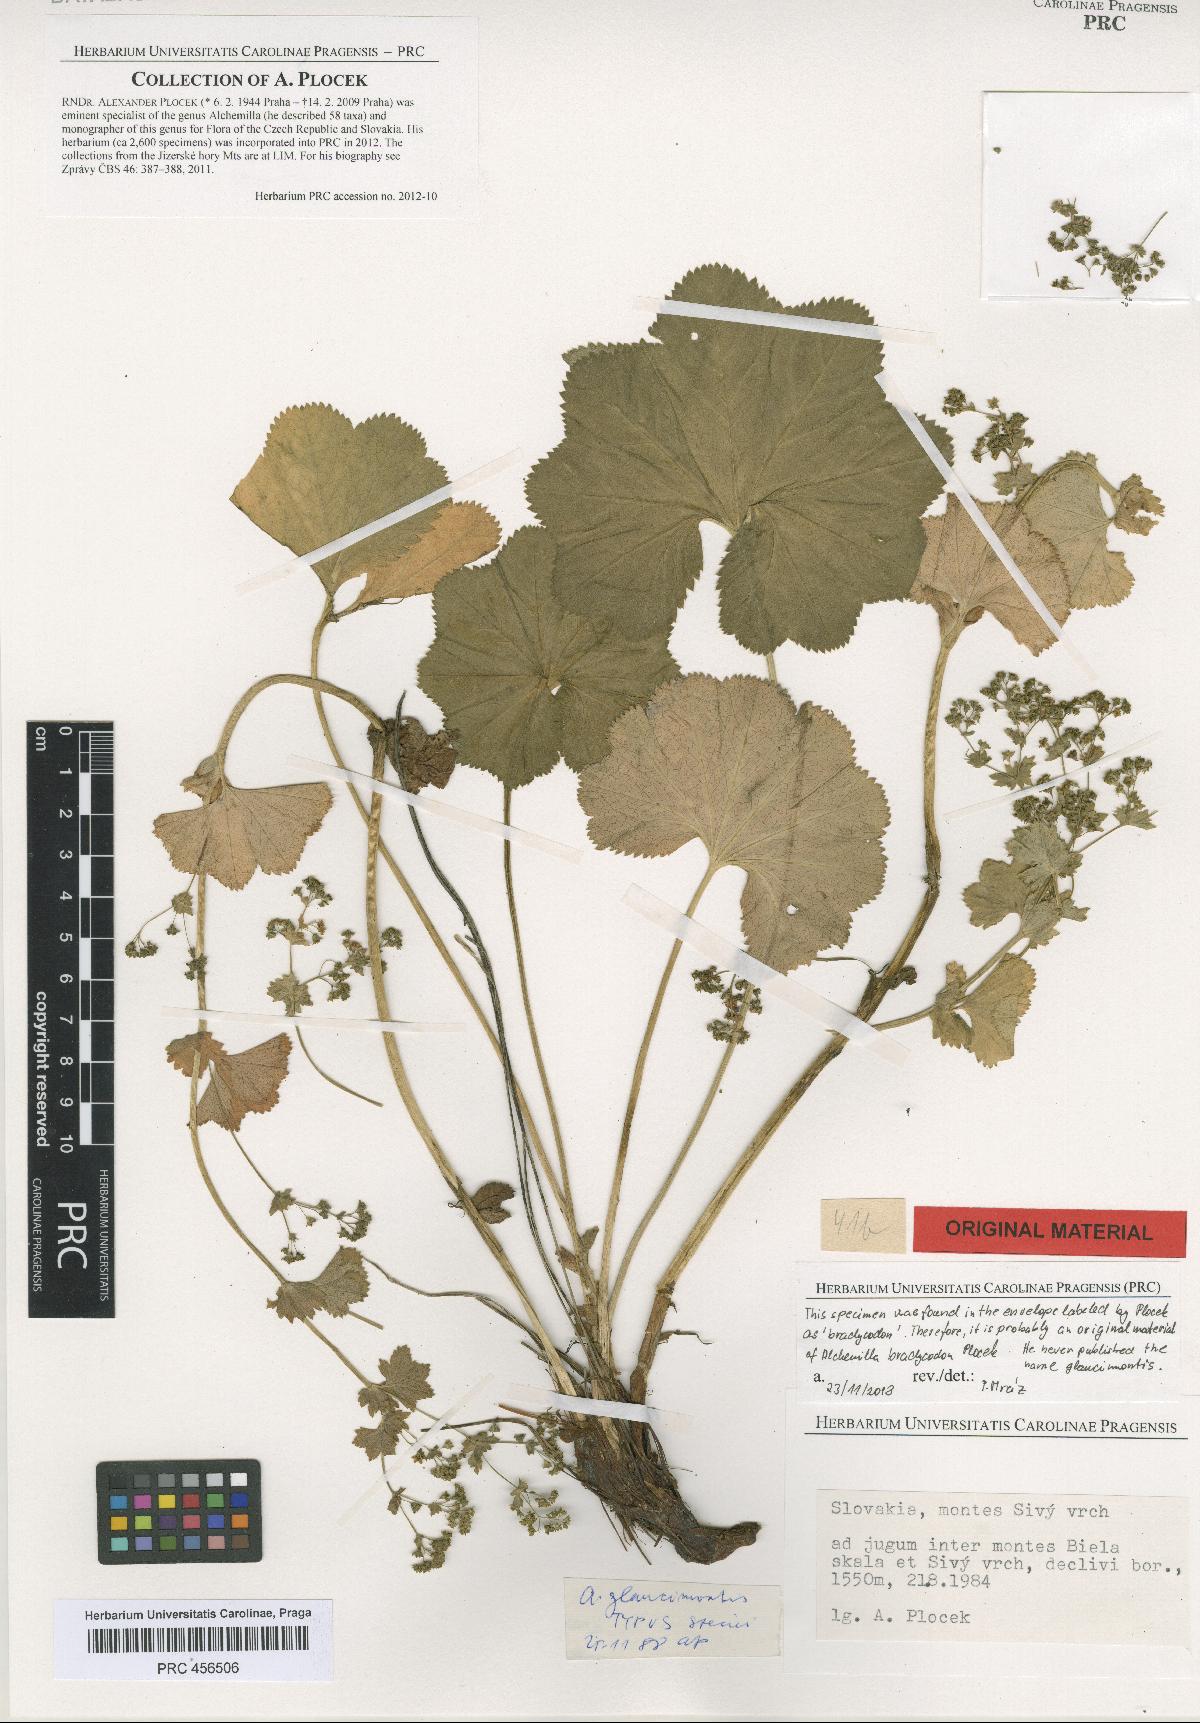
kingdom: Plantae
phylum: Tracheophyta
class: Magnoliopsida
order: Rosales
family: Rosaceae
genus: Alchemilla
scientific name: Alchemilla brachycodon
